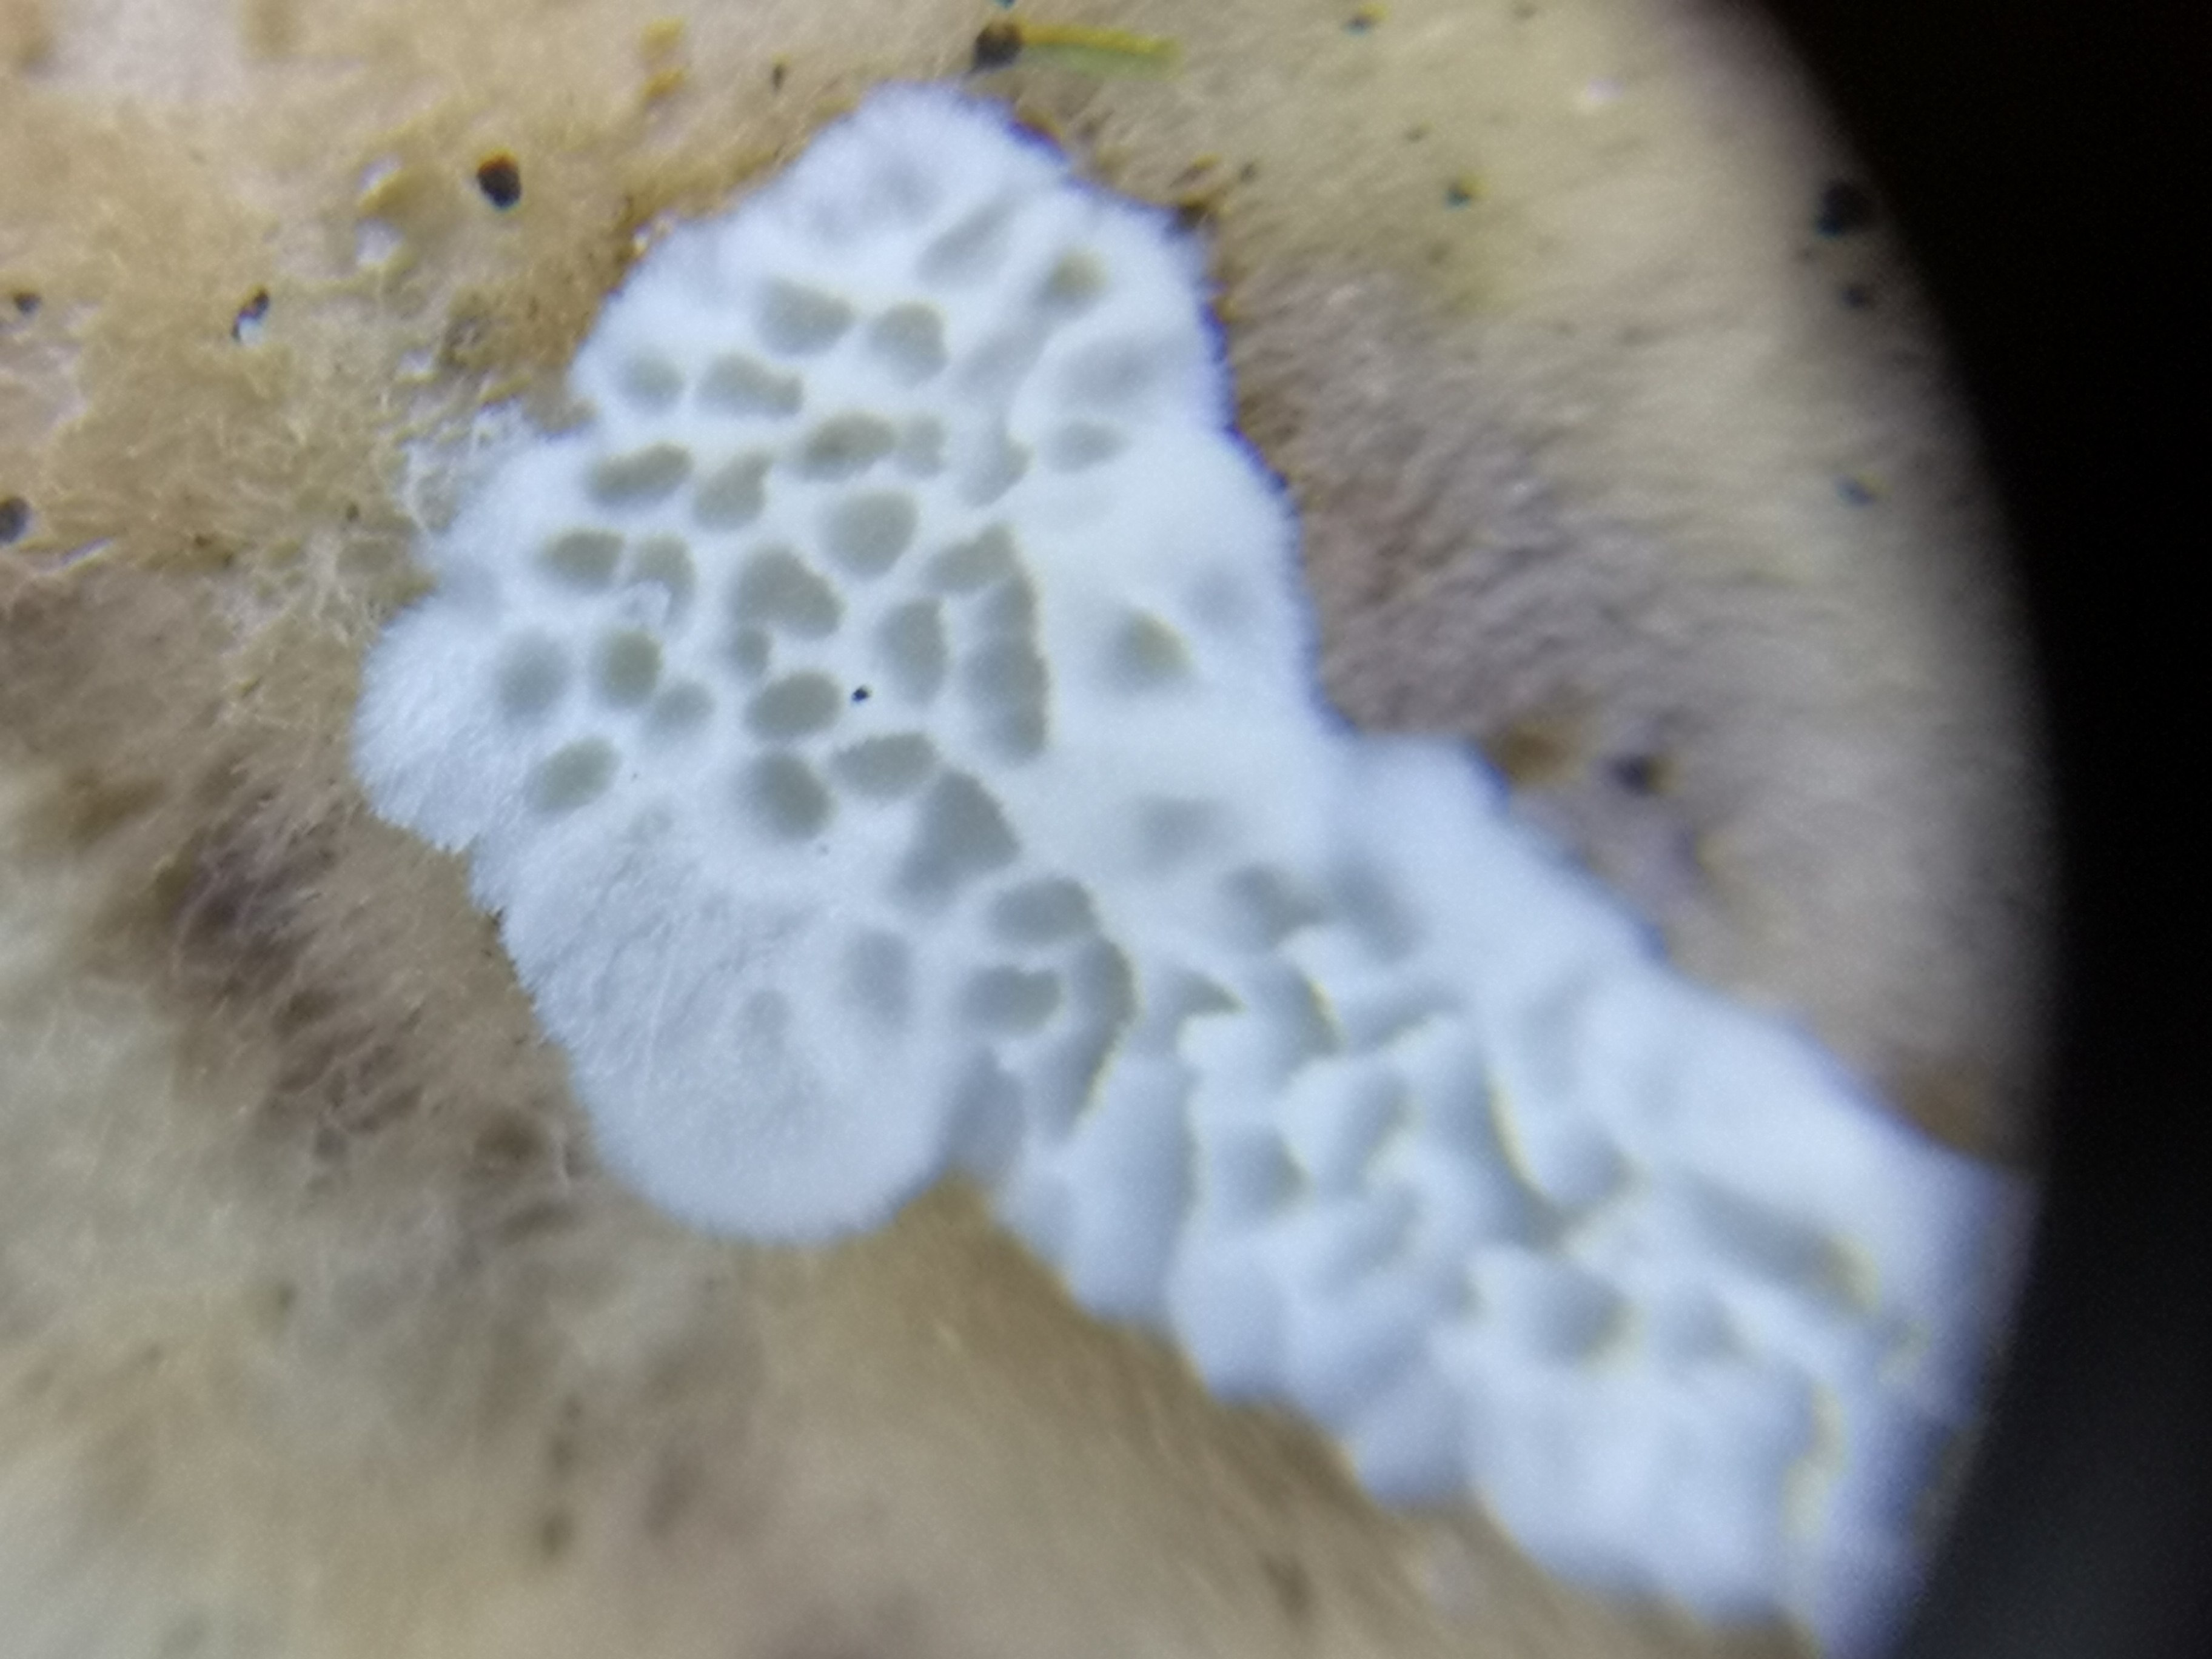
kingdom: Fungi
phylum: Basidiomycota
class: Agaricomycetes
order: Polyporales
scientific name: Polyporales
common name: poresvampordenen
